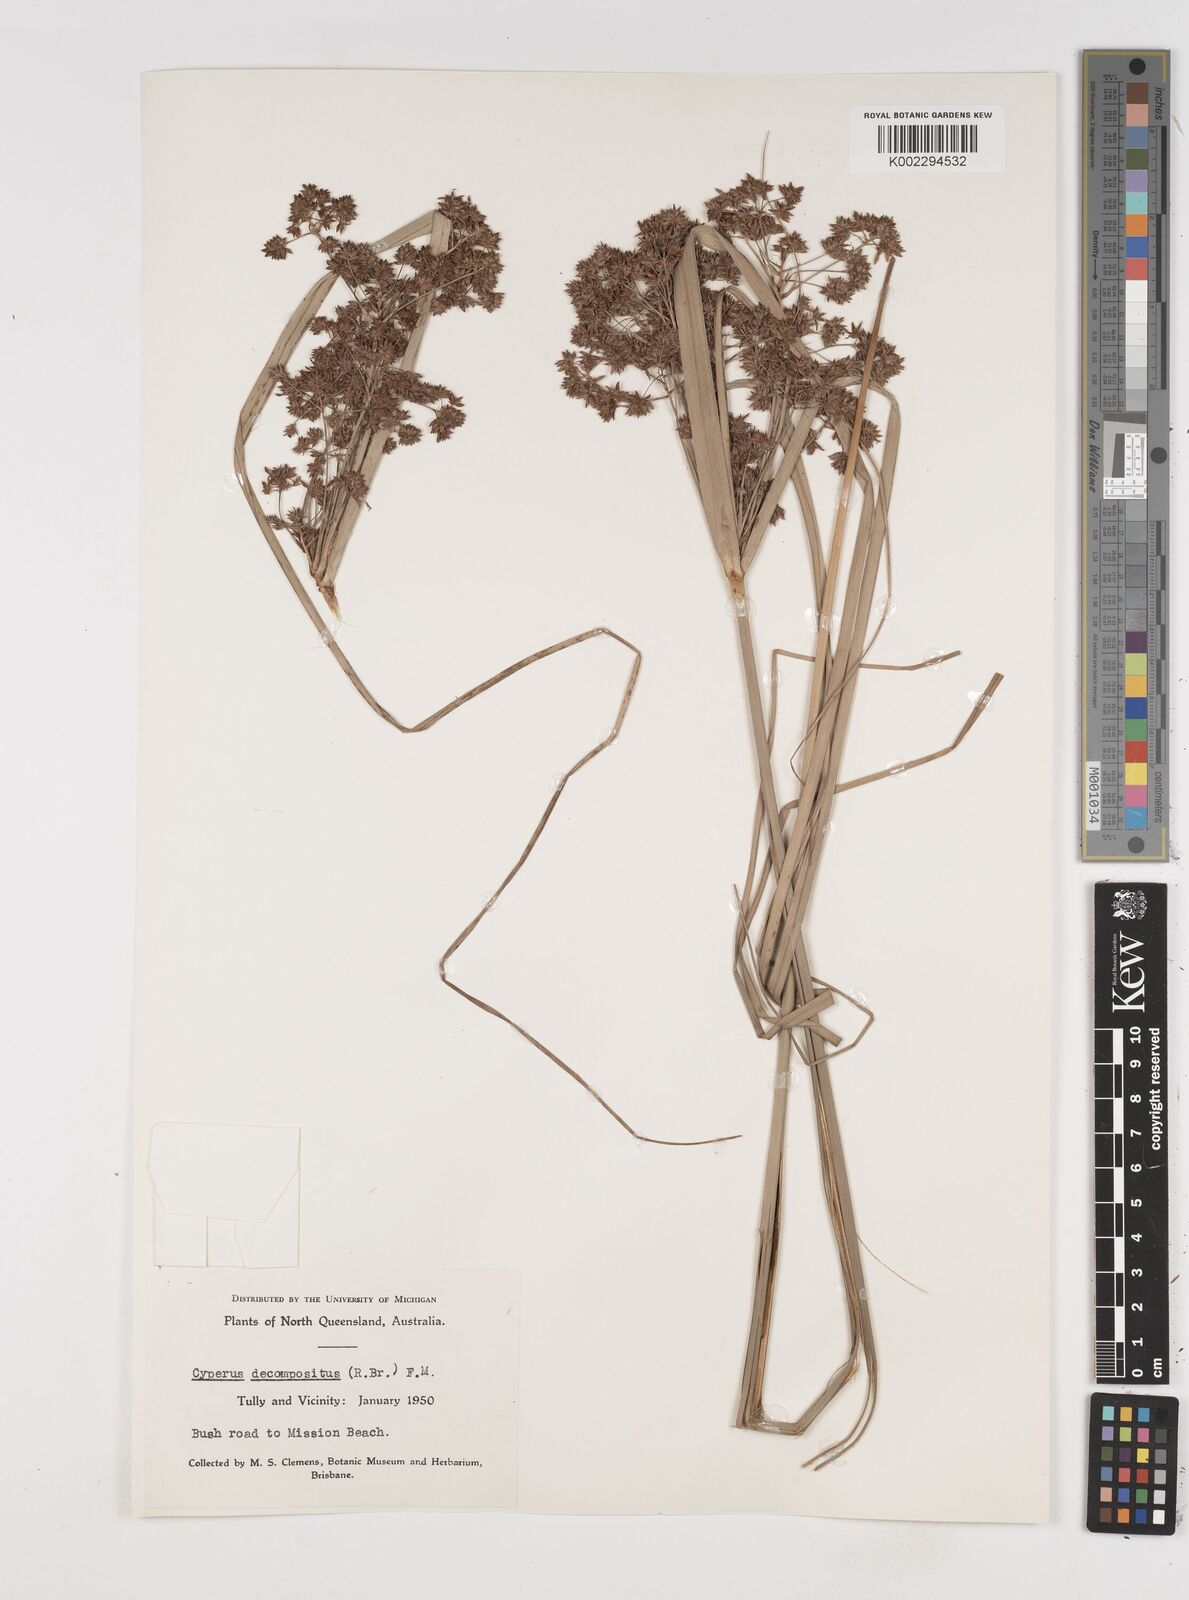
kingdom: Plantae
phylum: Tracheophyta
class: Liliopsida
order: Poales
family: Cyperaceae
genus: Cyperus
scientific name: Cyperus decompositus
